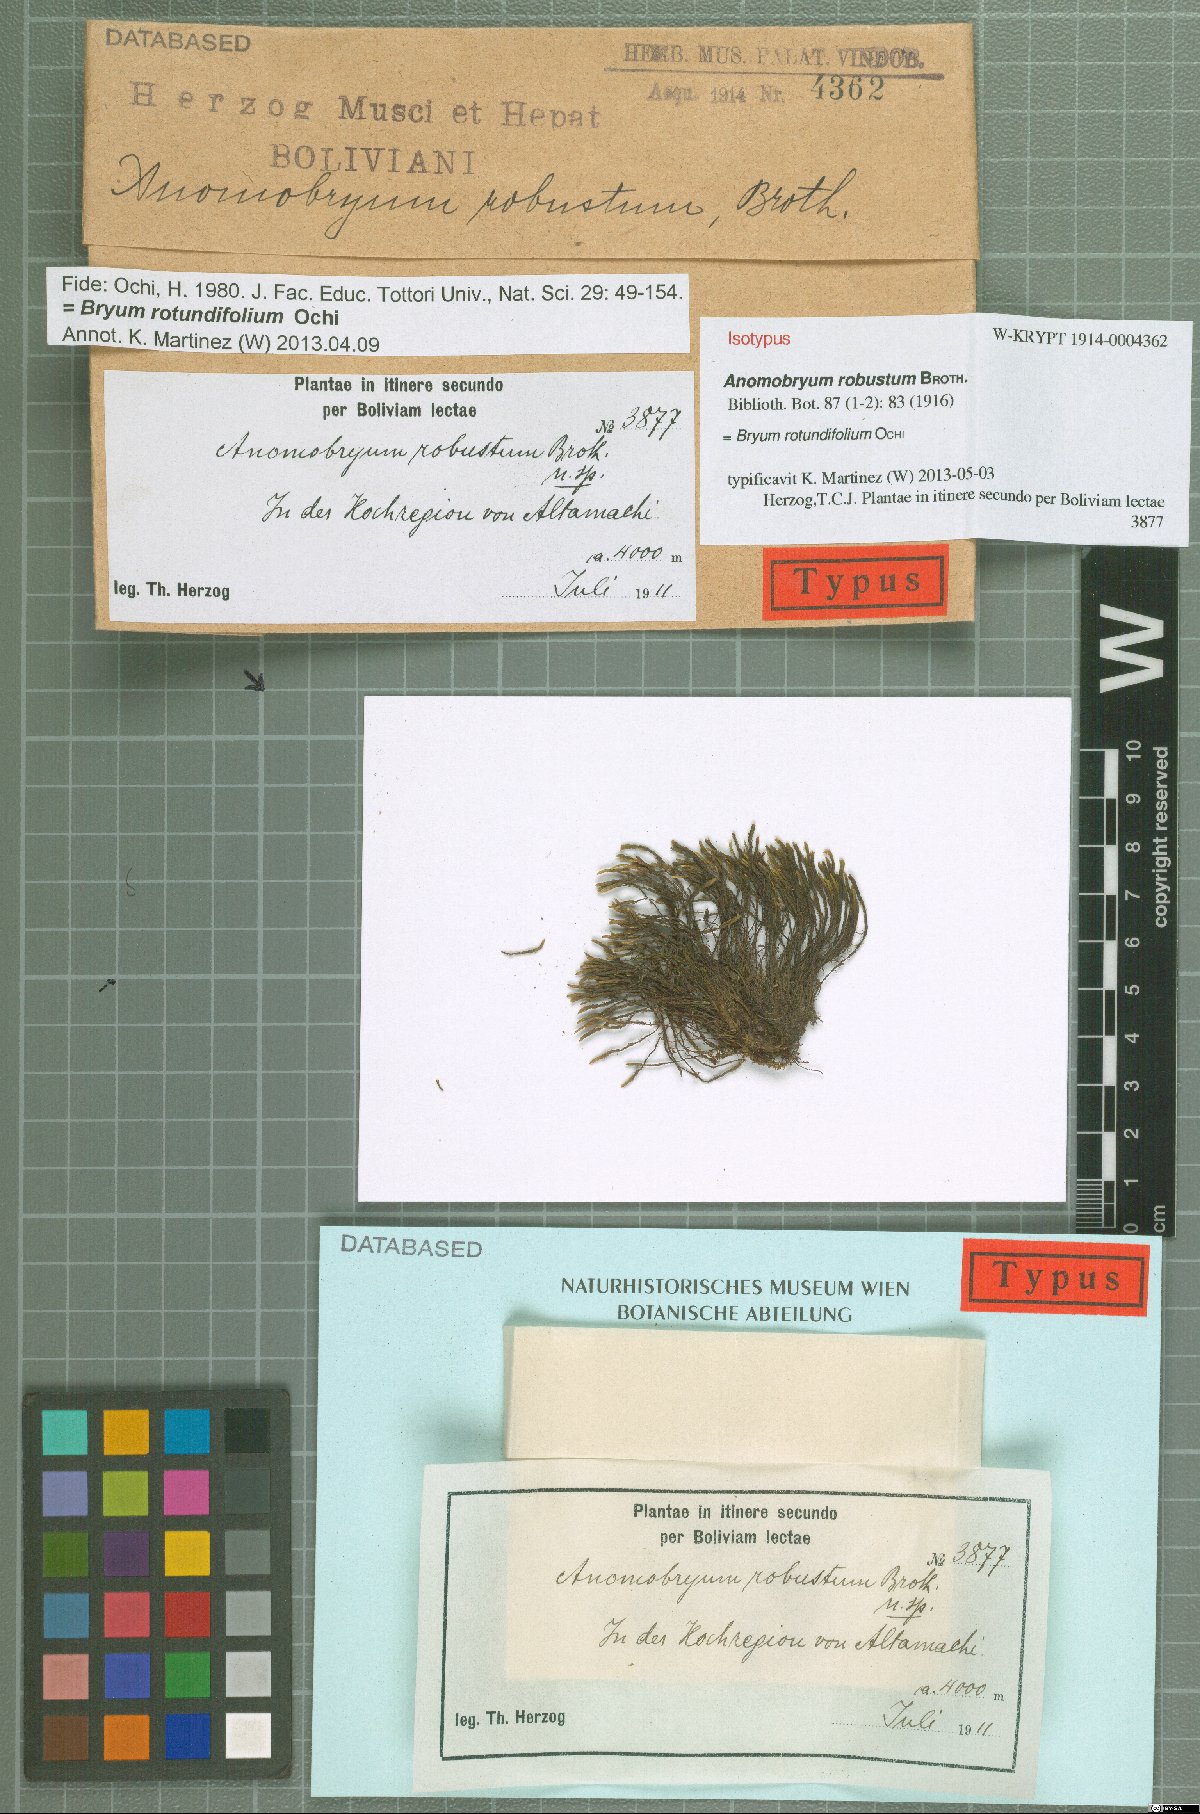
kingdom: Plantae
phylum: Bryophyta
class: Bryopsida
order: Bryales
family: Bryaceae
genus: Anomobryum
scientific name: Anomobryum robustum
